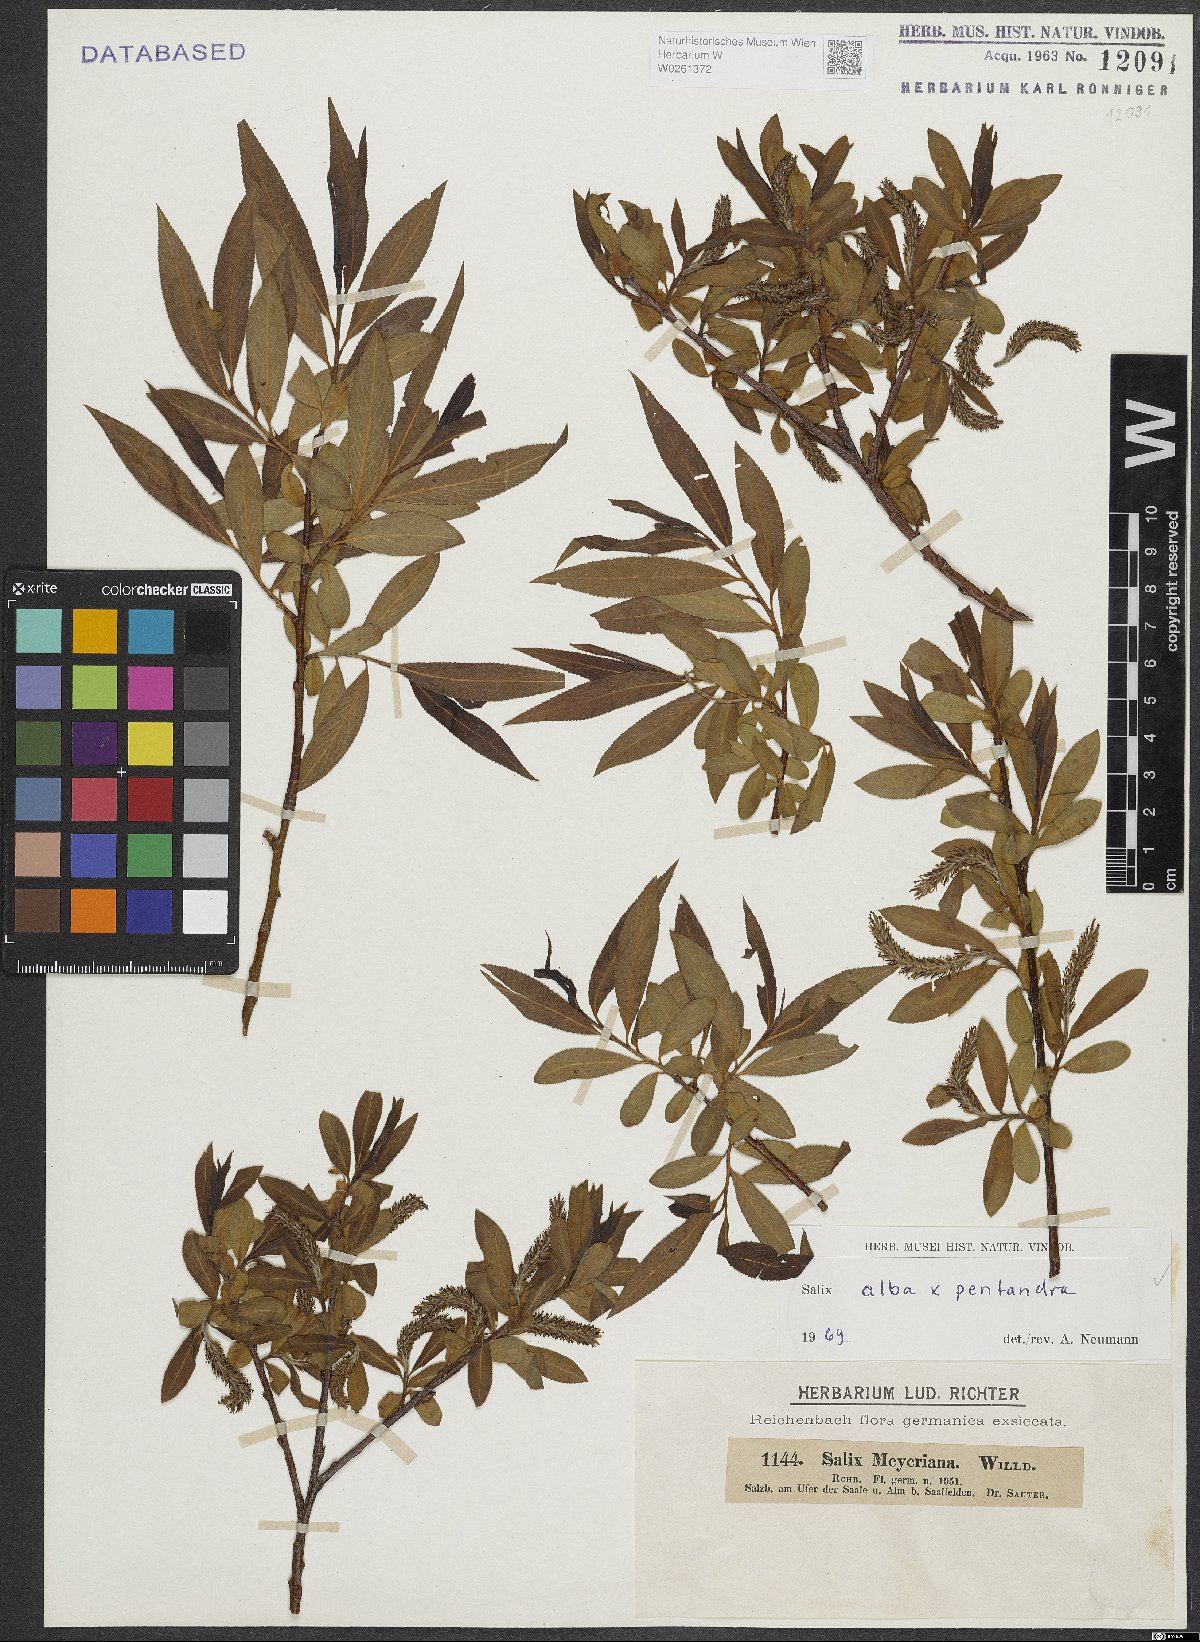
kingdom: Plantae
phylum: Tracheophyta
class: Magnoliopsida
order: Malpighiales
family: Salicaceae
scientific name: Salicaceae
